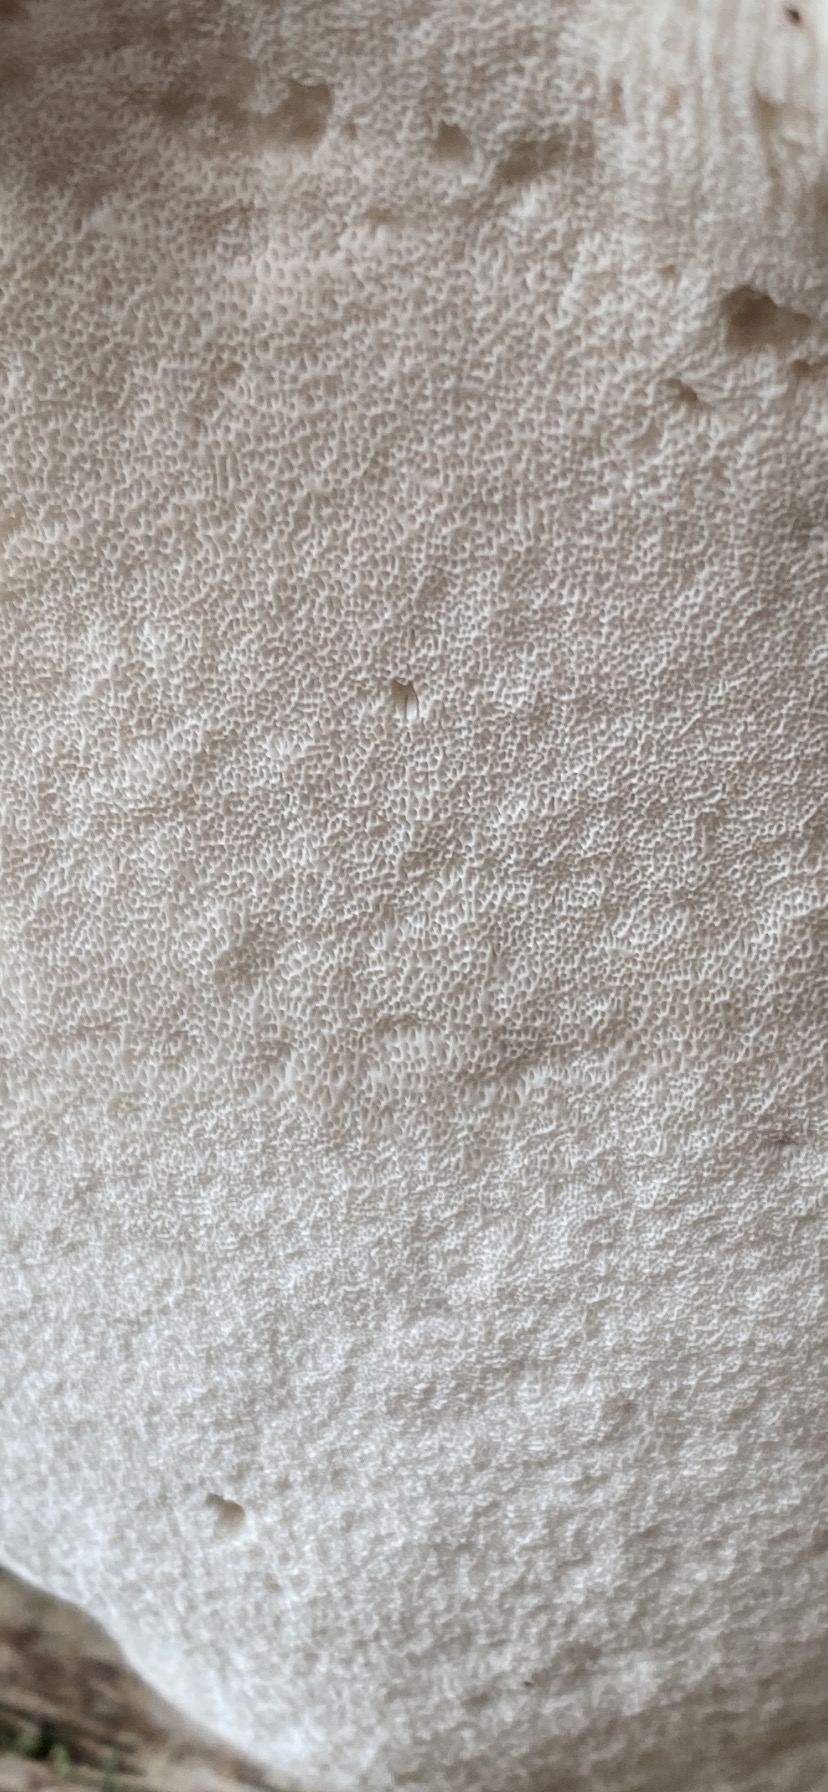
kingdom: Fungi
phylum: Basidiomycota
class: Agaricomycetes
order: Polyporales
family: Fomitopsidaceae
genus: Fomitopsis
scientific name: Fomitopsis betulina
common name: birkeporesvamp
